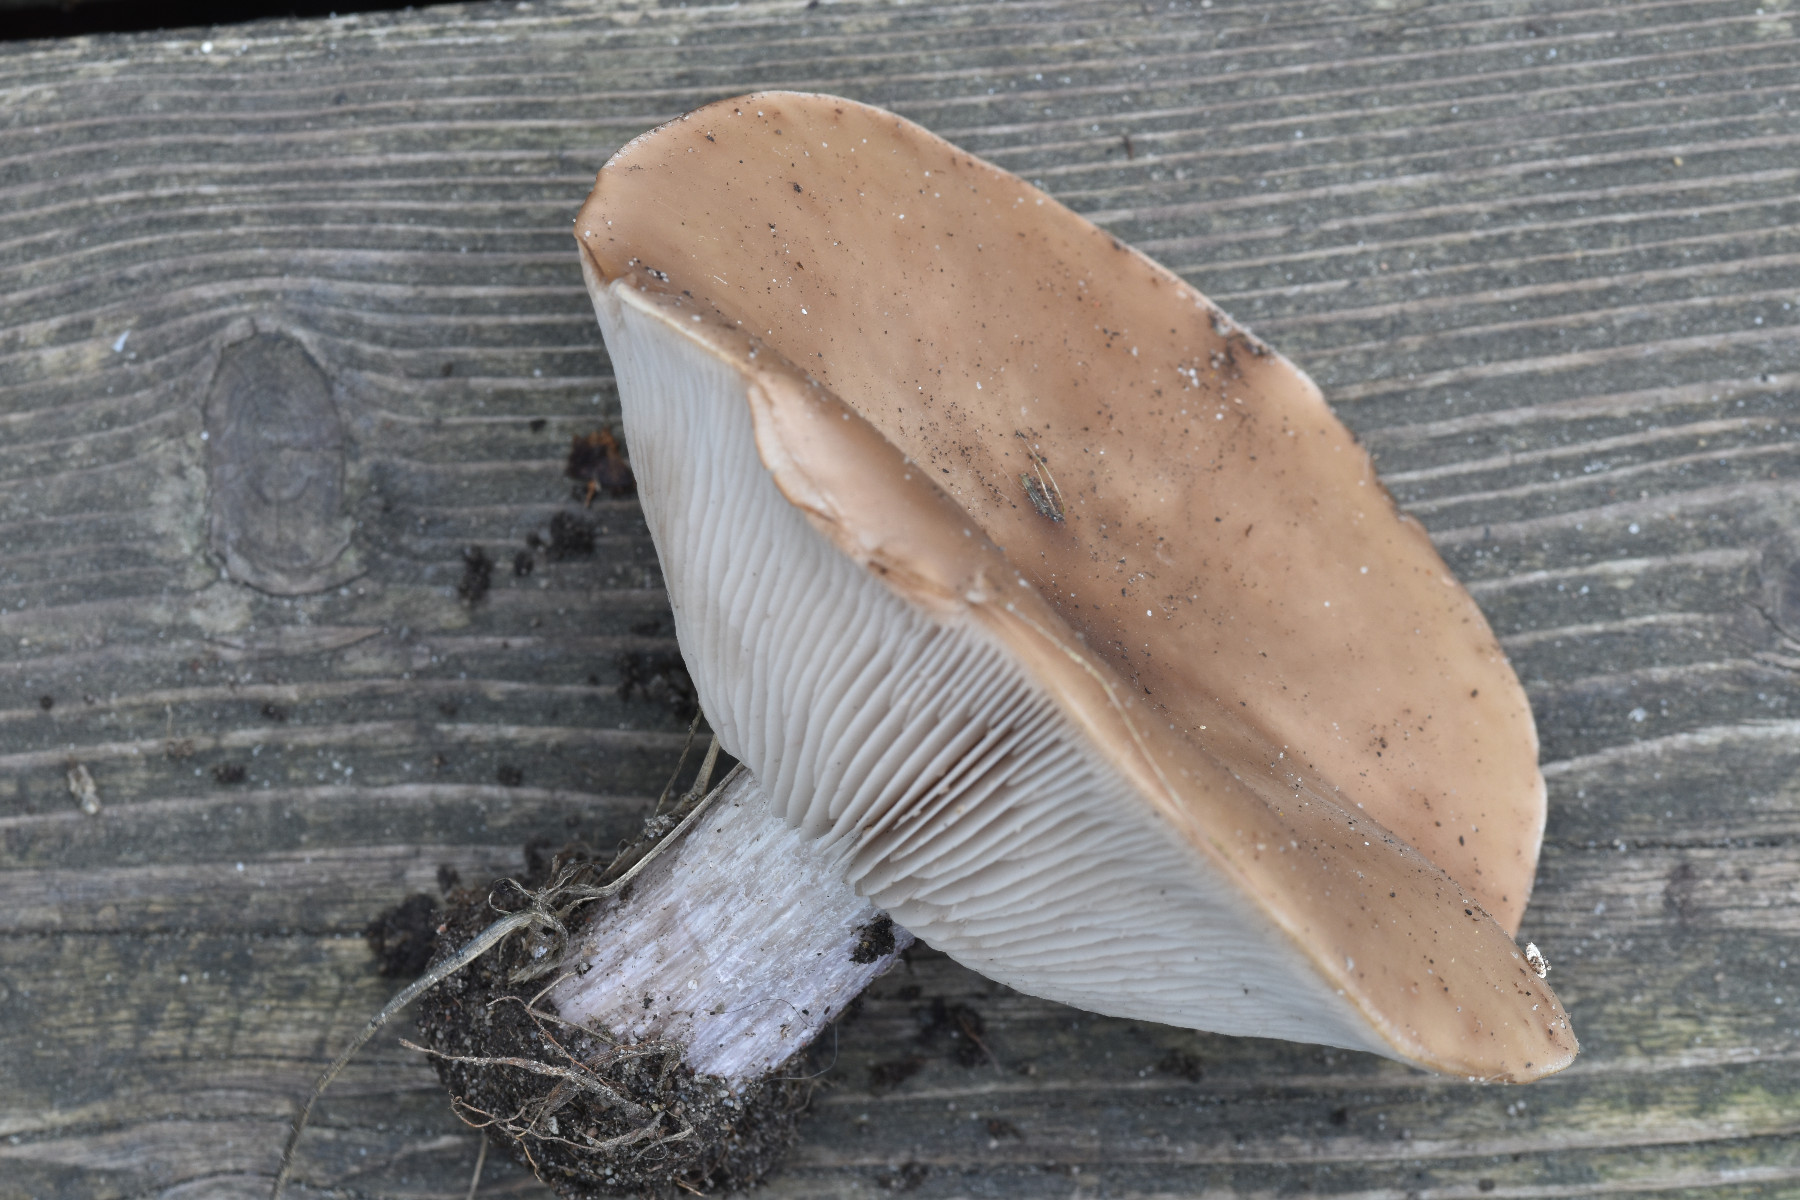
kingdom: Fungi
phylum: Basidiomycota
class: Agaricomycetes
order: Agaricales
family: Tricholomataceae
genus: Lepista
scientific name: Lepista personata
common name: bleg hekseringshat
